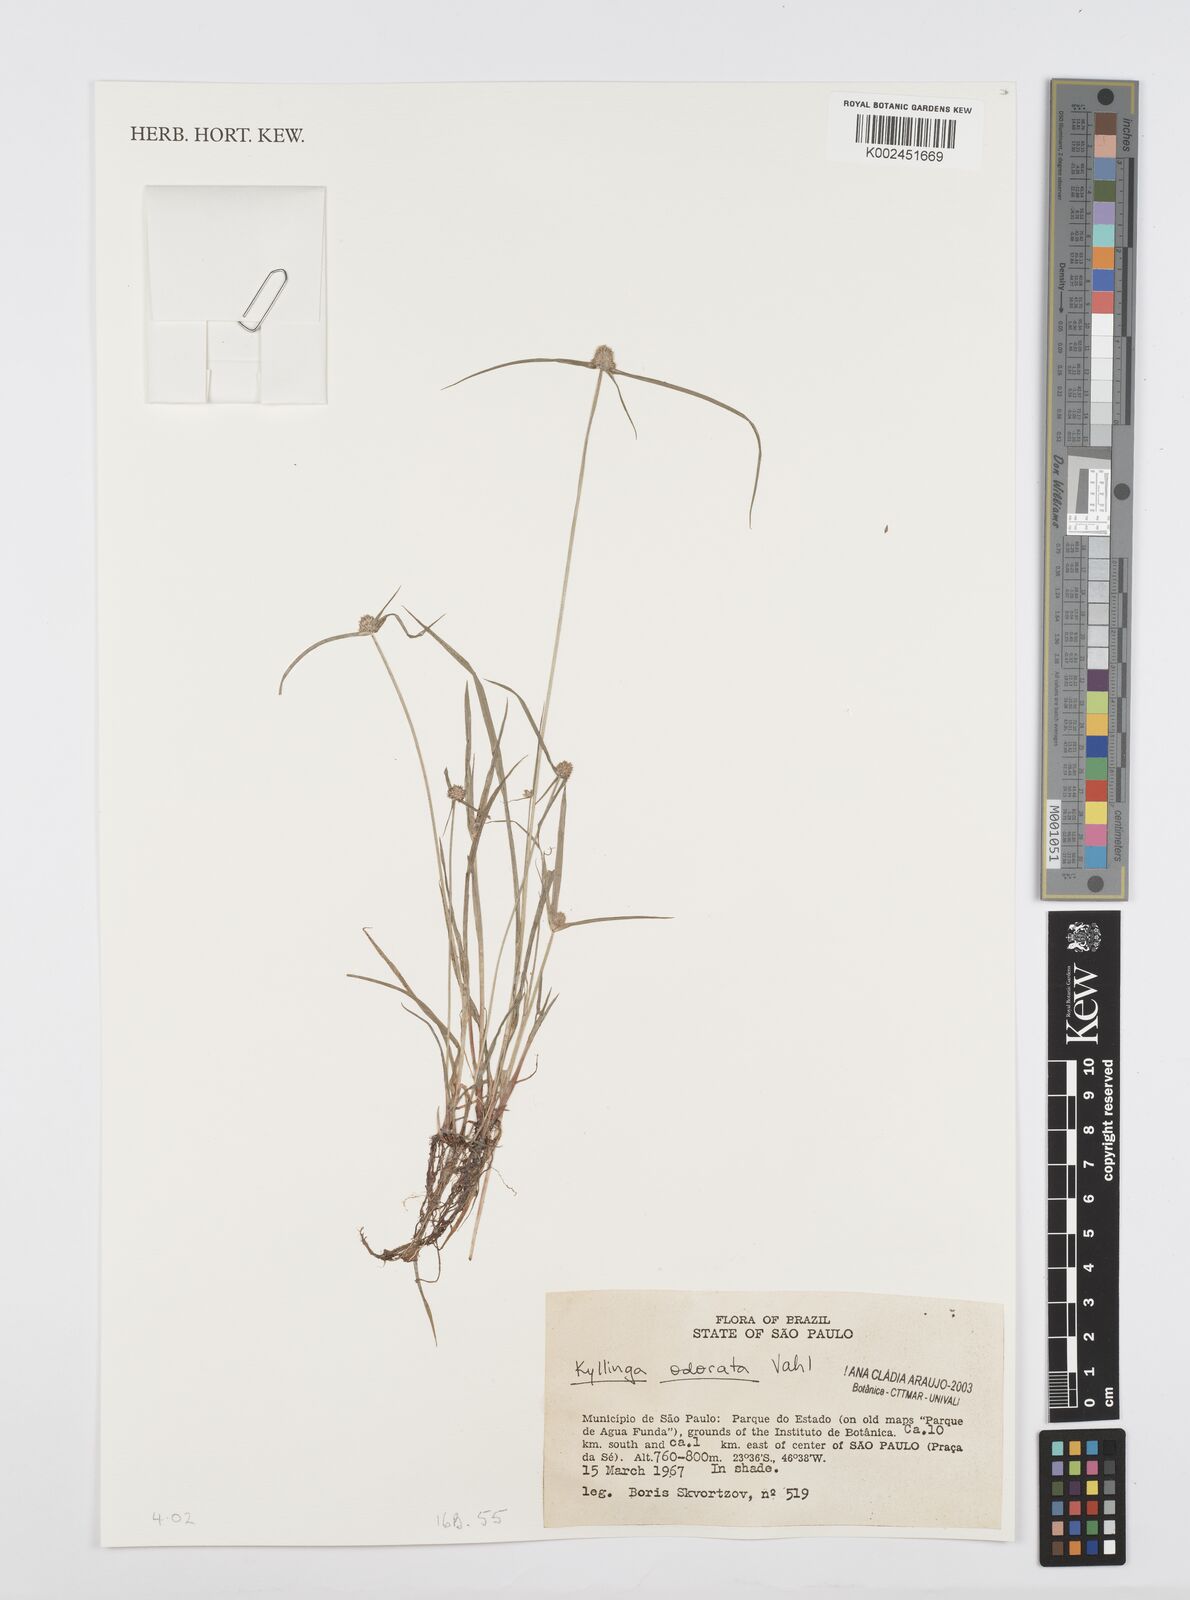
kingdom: Plantae
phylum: Tracheophyta
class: Liliopsida
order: Poales
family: Cyperaceae
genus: Cyperus
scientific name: Cyperus
